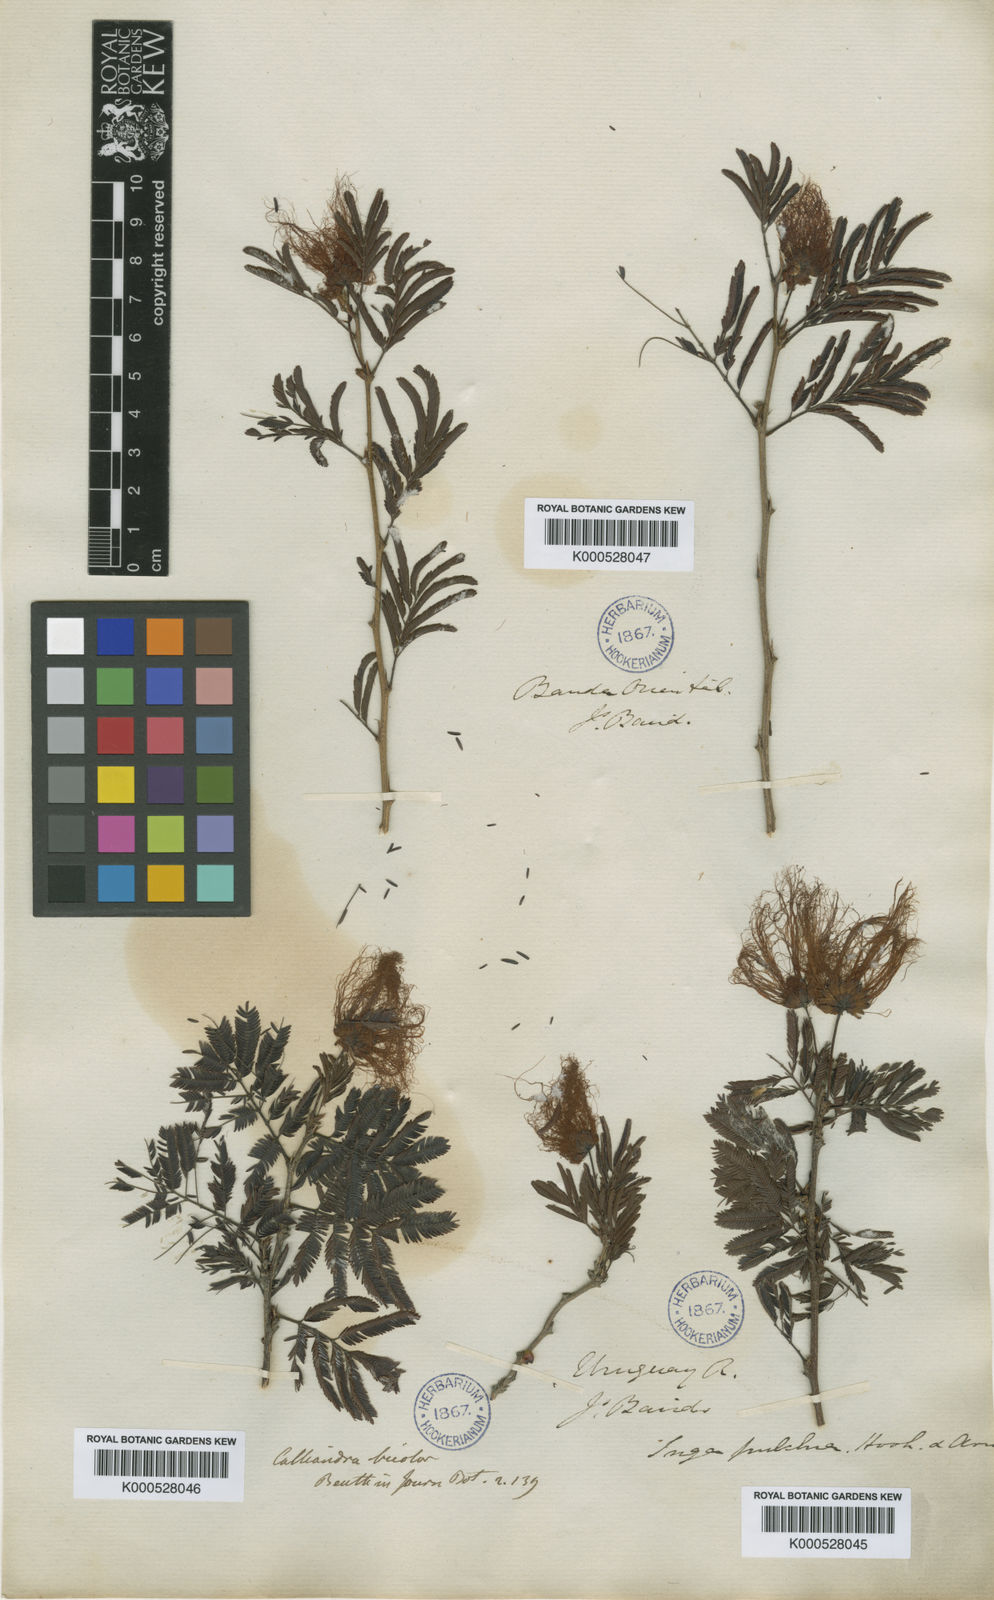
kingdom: Plantae
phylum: Tracheophyta
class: Magnoliopsida
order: Fabales
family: Fabaceae
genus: Calliandra
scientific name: Calliandra parvifolia
